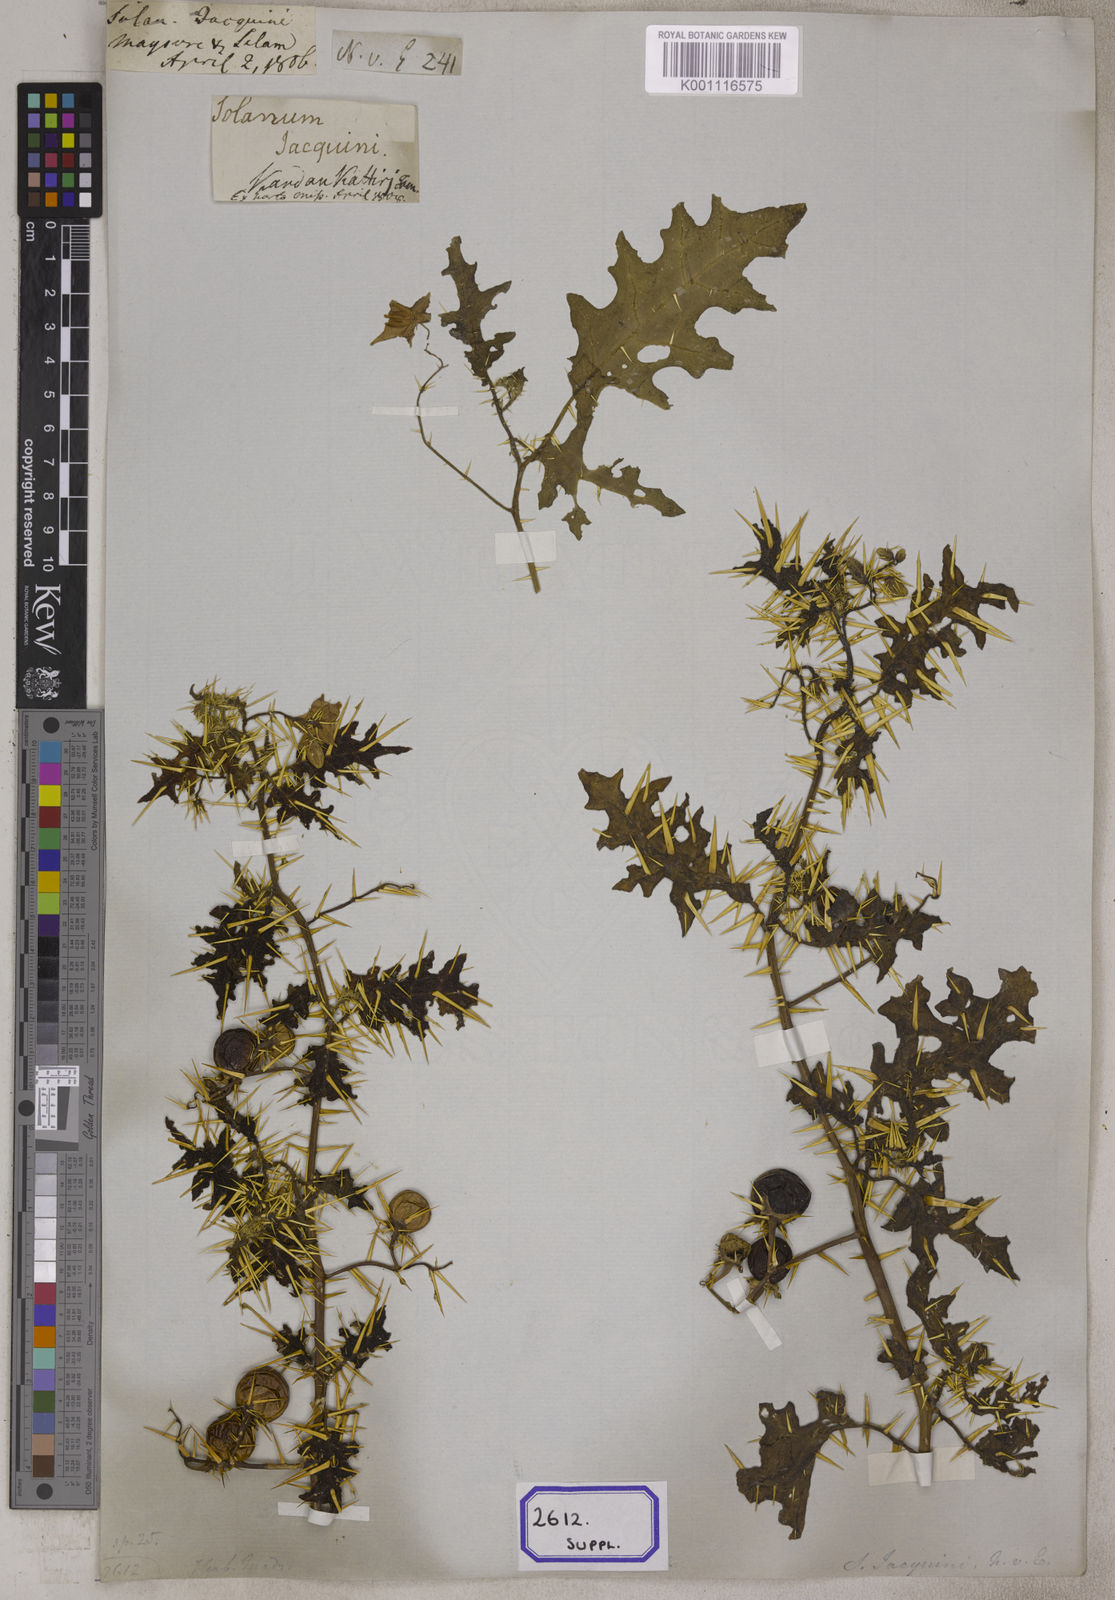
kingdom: Plantae
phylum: Tracheophyta
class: Magnoliopsida
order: Solanales
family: Solanaceae
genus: Solanum
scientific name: Solanum virginianum
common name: Surattense nightshade
